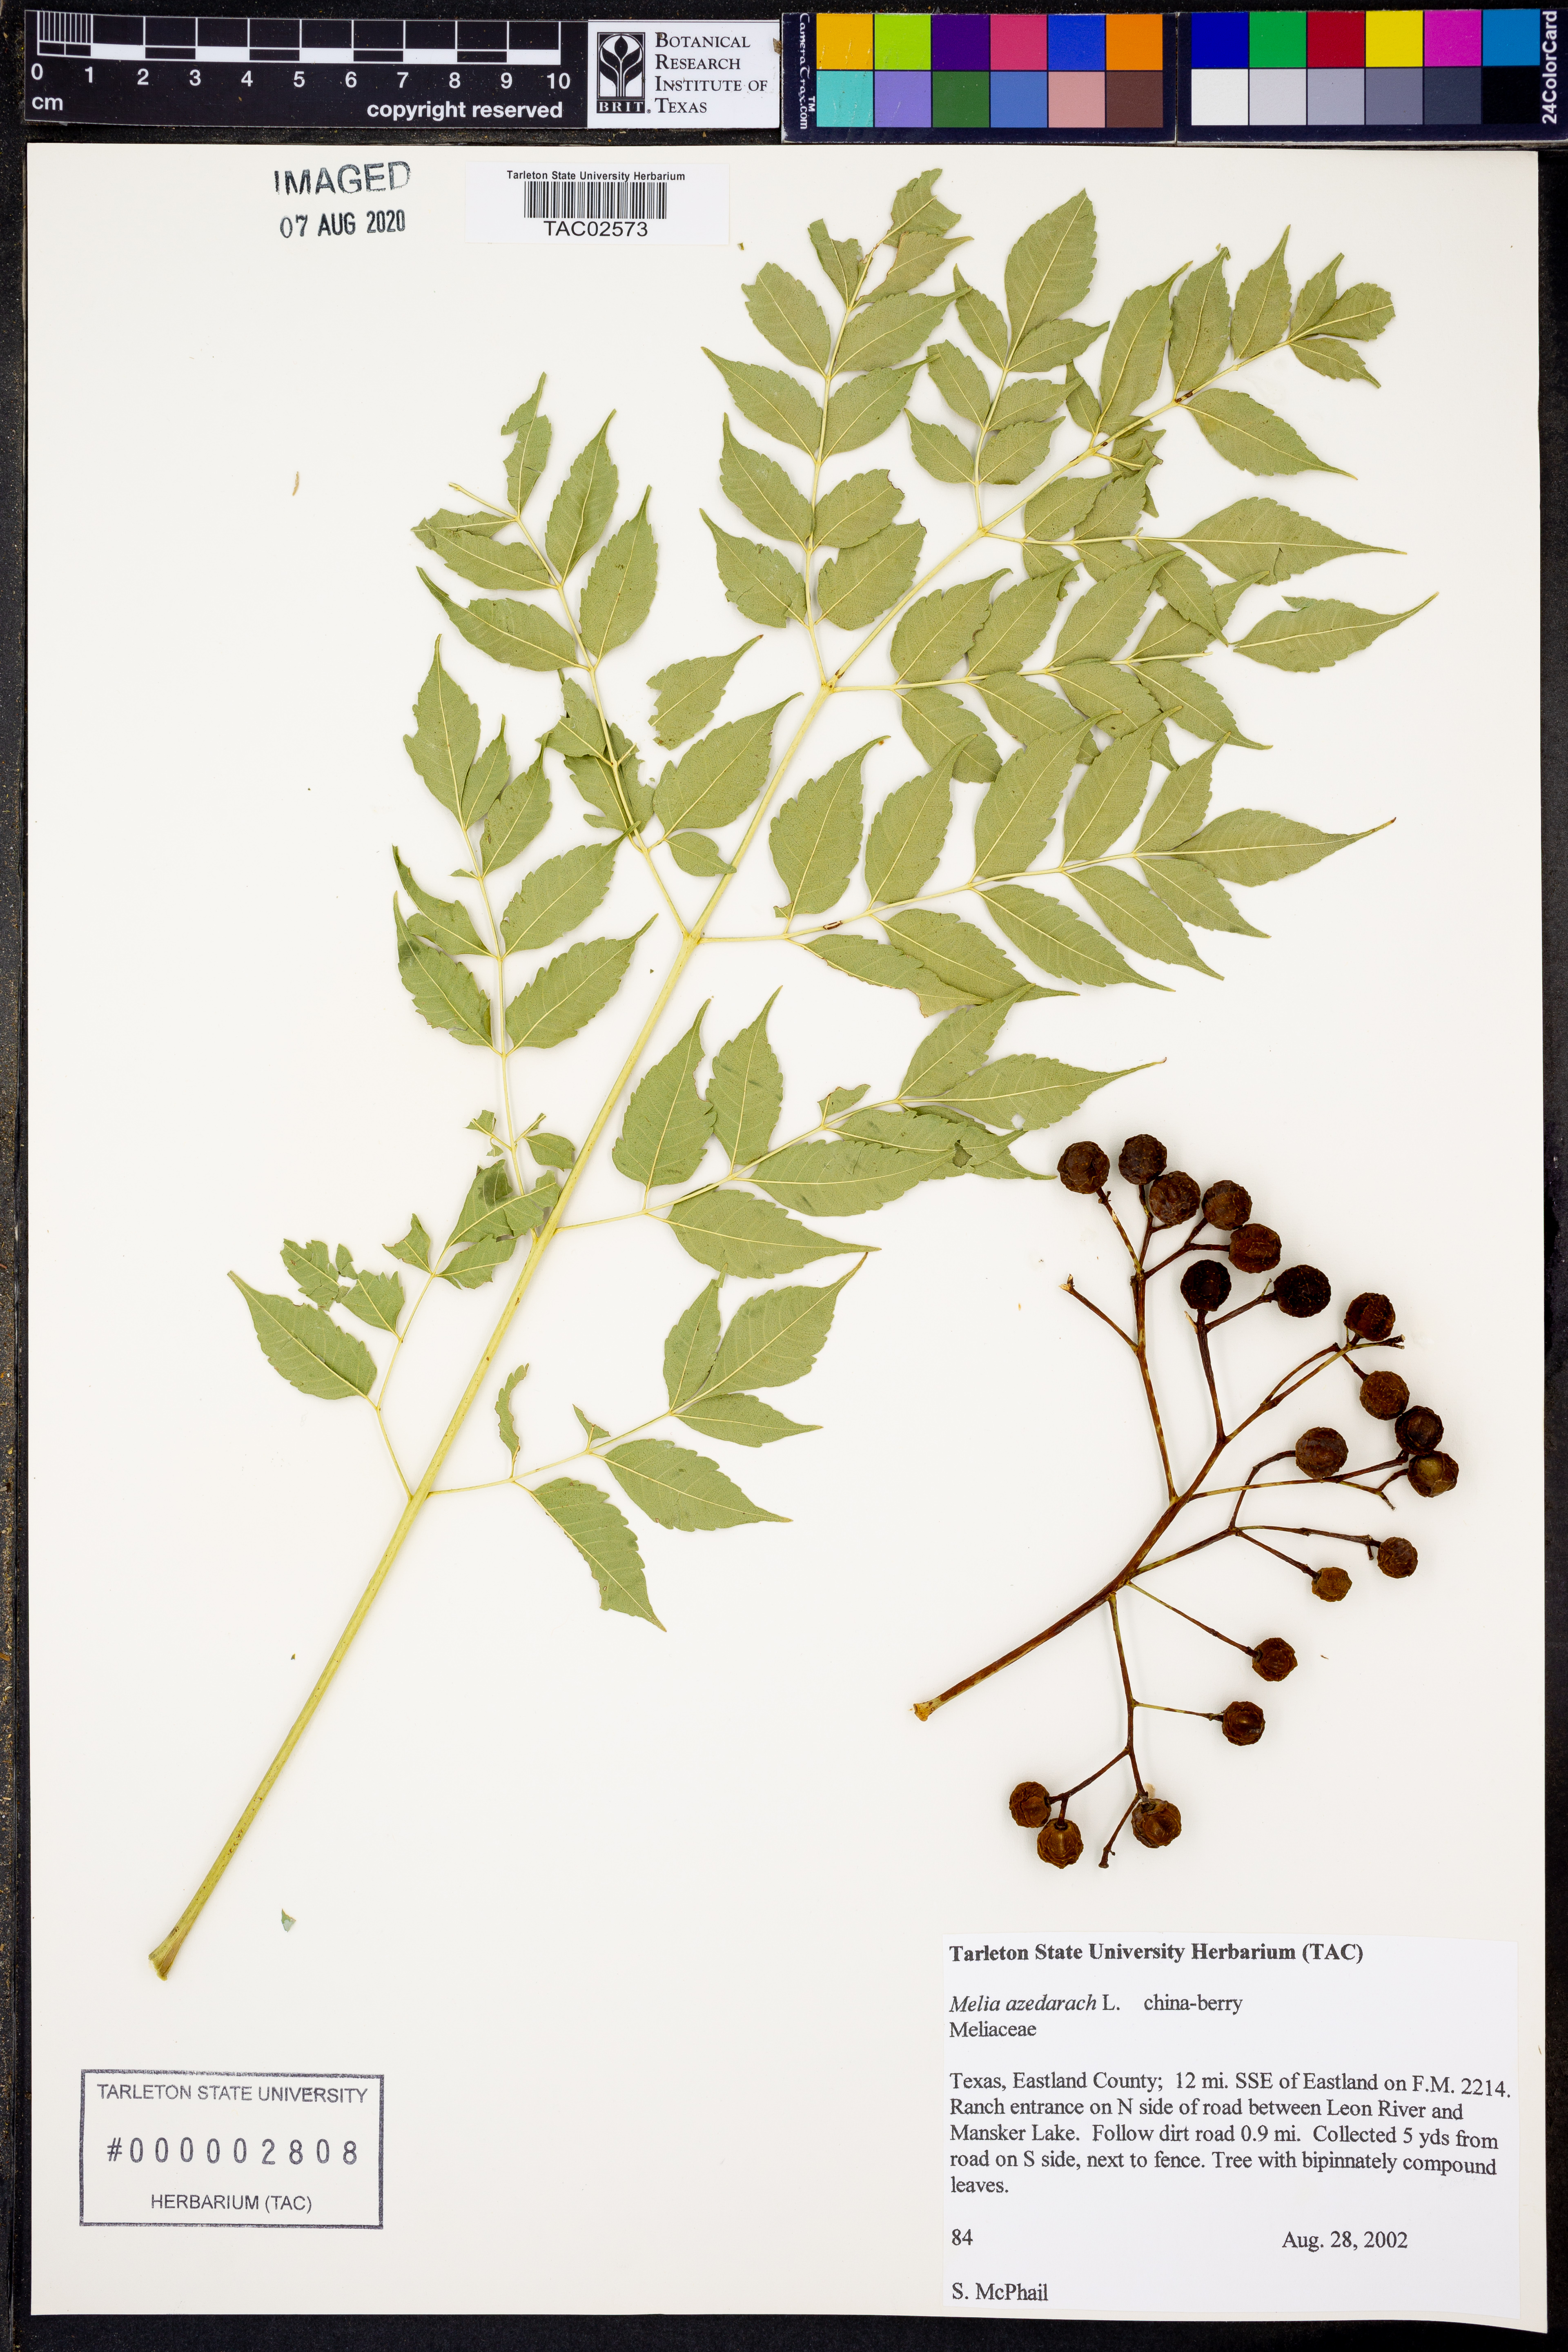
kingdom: Plantae
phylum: Tracheophyta
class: Magnoliopsida
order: Sapindales
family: Meliaceae
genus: Melia
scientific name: Melia azedarach
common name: Chinaberrytree
